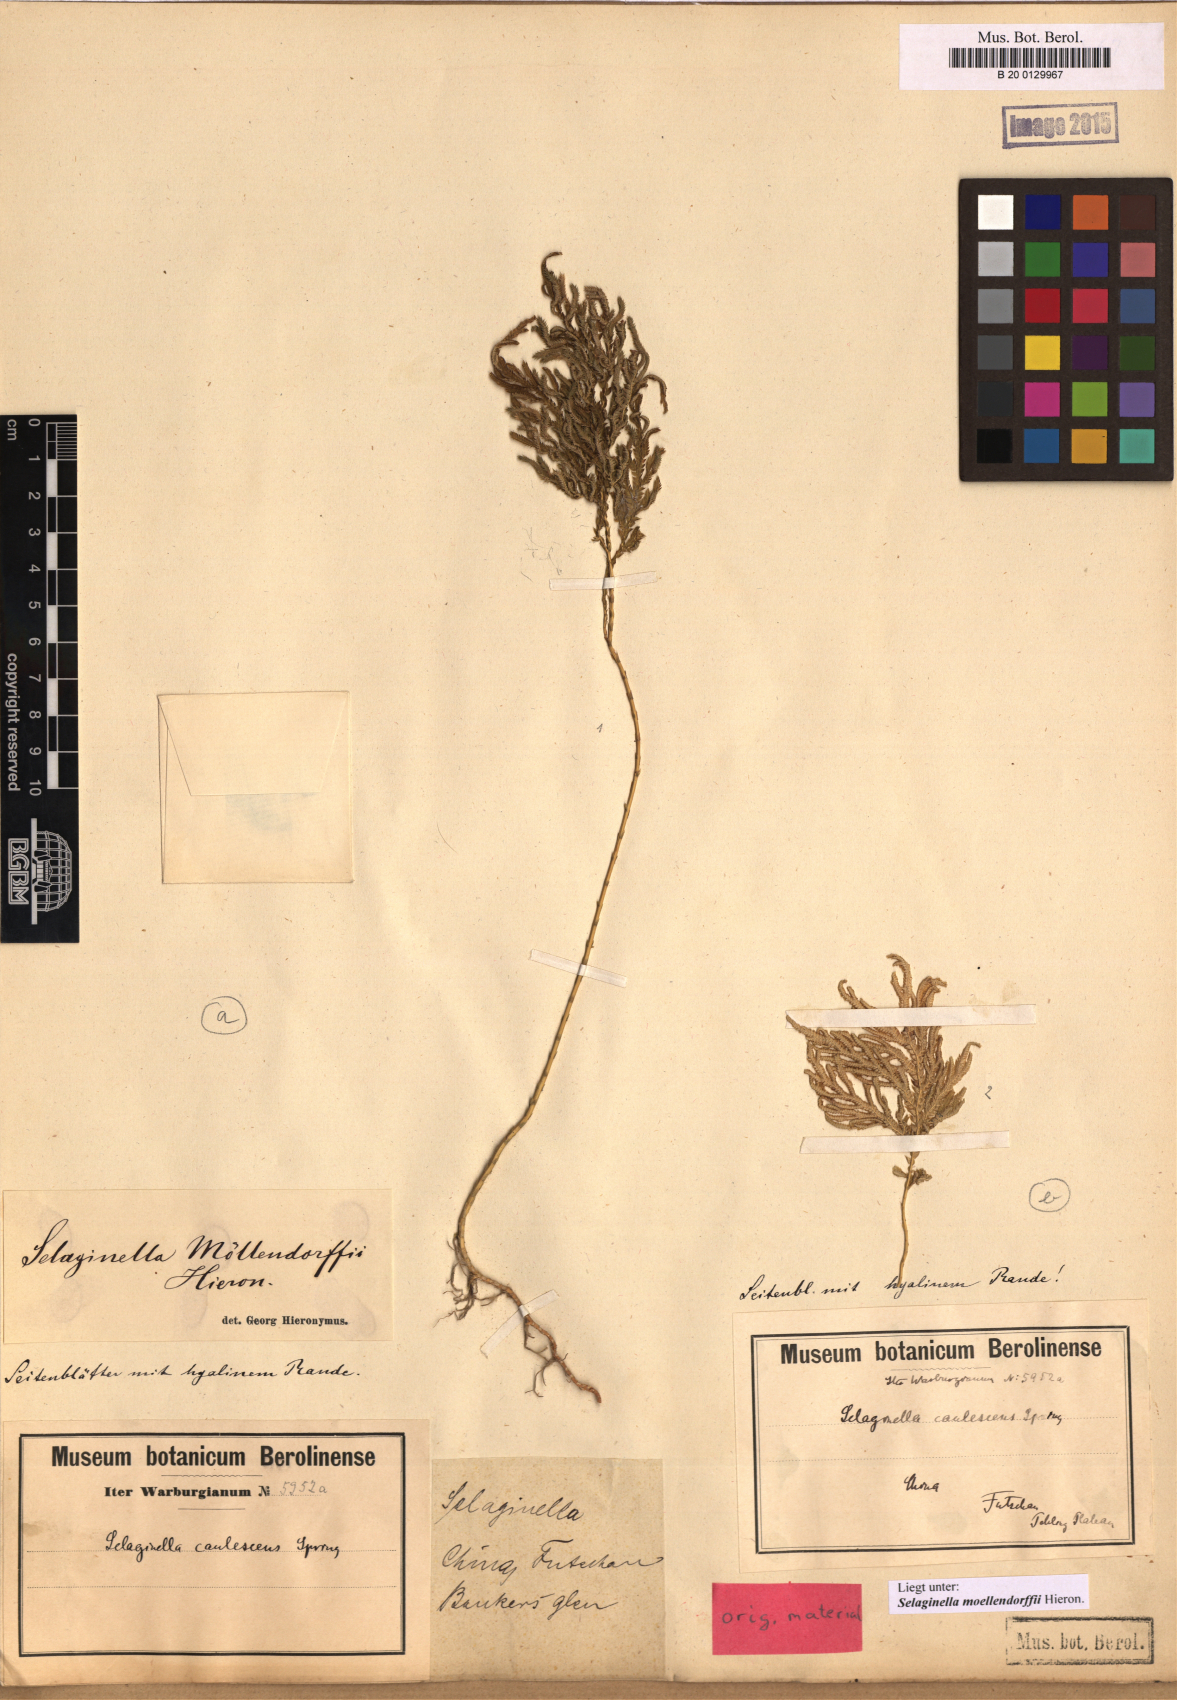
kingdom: Plantae
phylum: Tracheophyta
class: Lycopodiopsida
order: Selaginellales
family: Selaginellaceae
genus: Selaginella
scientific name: Selaginella moellendorffii
